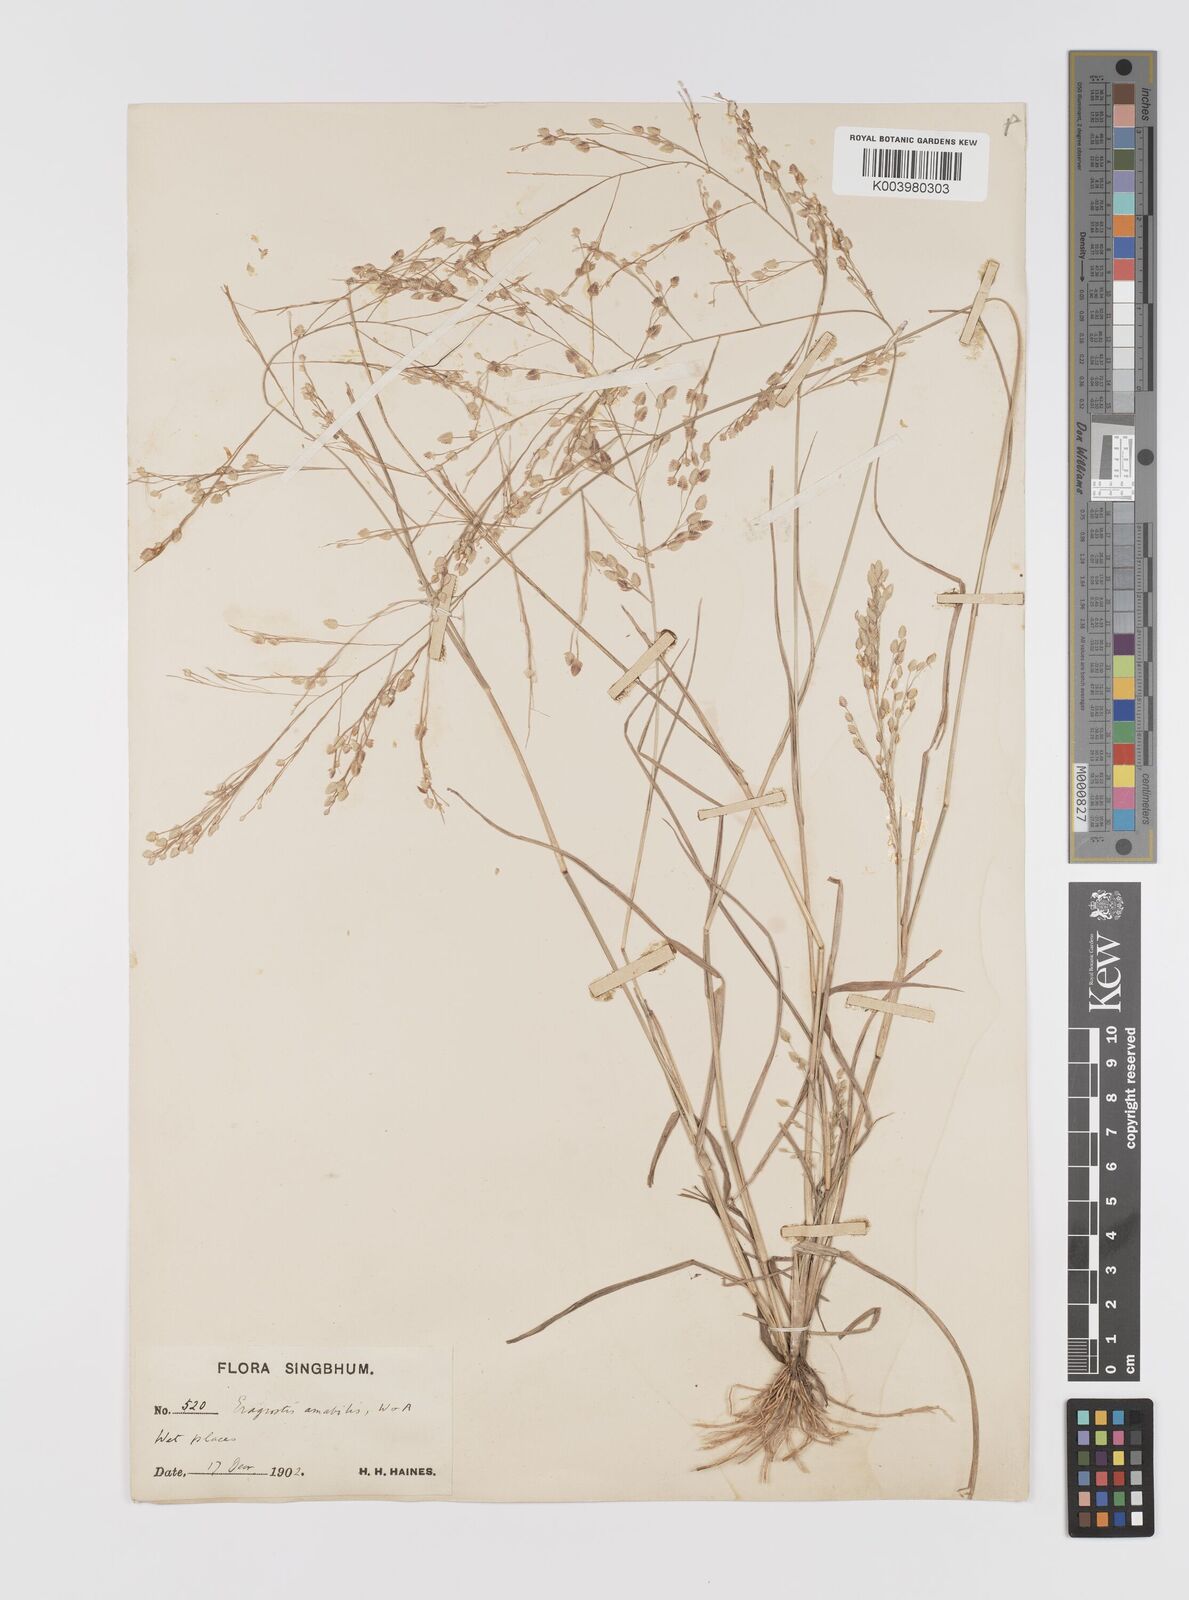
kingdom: Plantae
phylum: Tracheophyta
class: Liliopsida
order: Poales
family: Poaceae
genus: Eragrostis
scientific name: Eragrostis unioloides
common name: Chinese lovegrass
